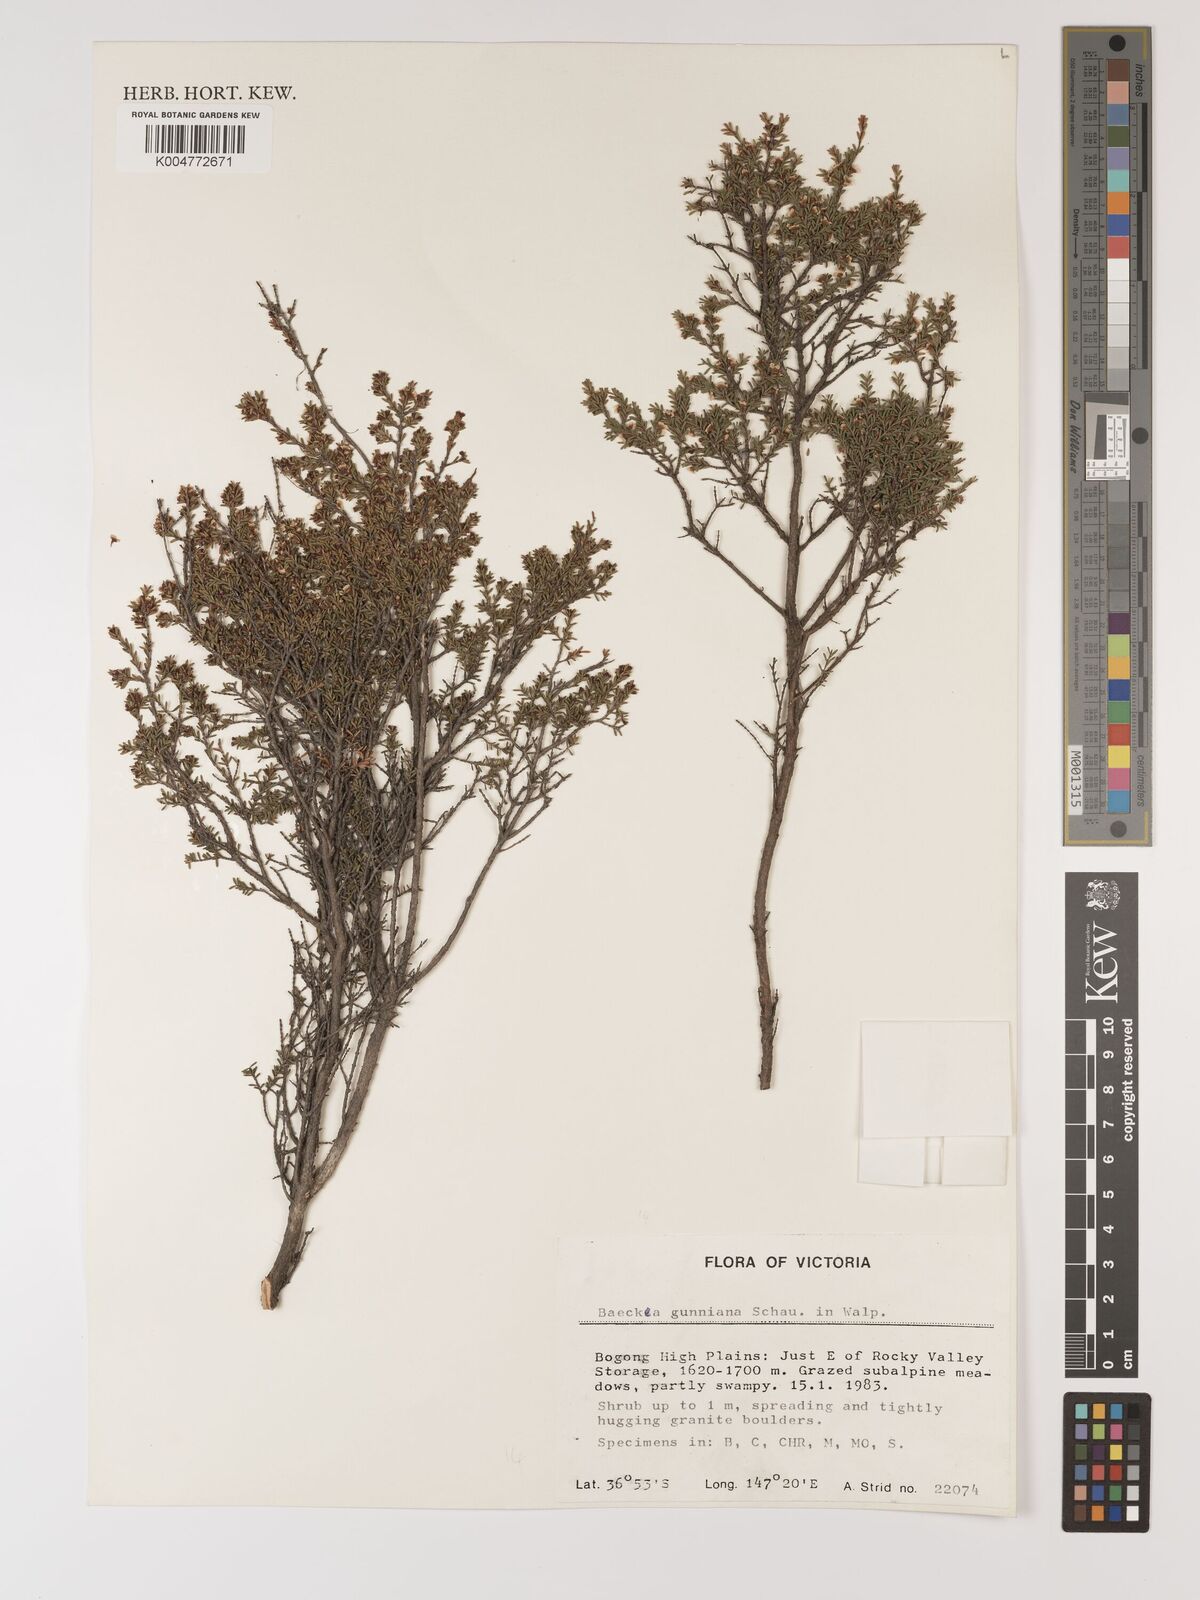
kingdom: Plantae
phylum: Tracheophyta
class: Magnoliopsida
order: Myrtales
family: Myrtaceae
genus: Baeckea
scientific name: Baeckea gunniana
